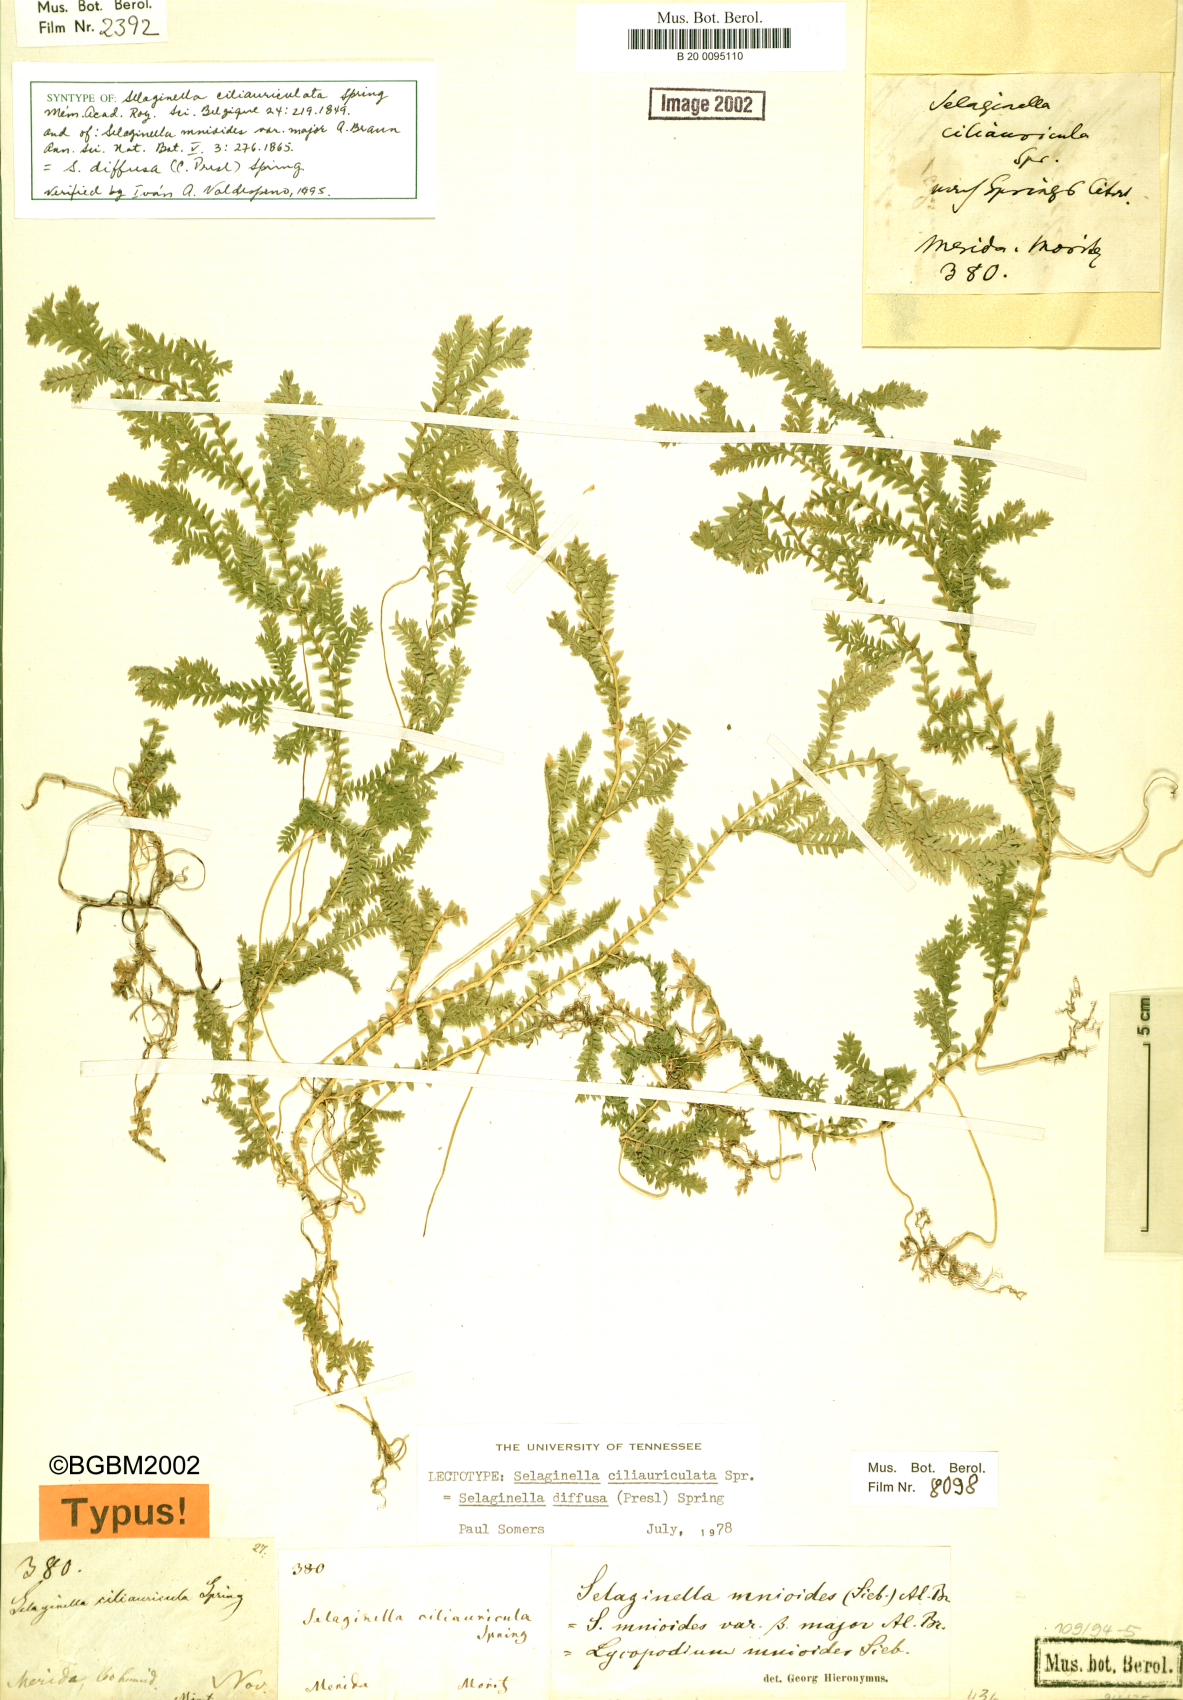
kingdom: Plantae
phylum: Tracheophyta
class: Lycopodiopsida
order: Selaginellales
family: Selaginellaceae
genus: Selaginella
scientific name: Selaginella diffusa
